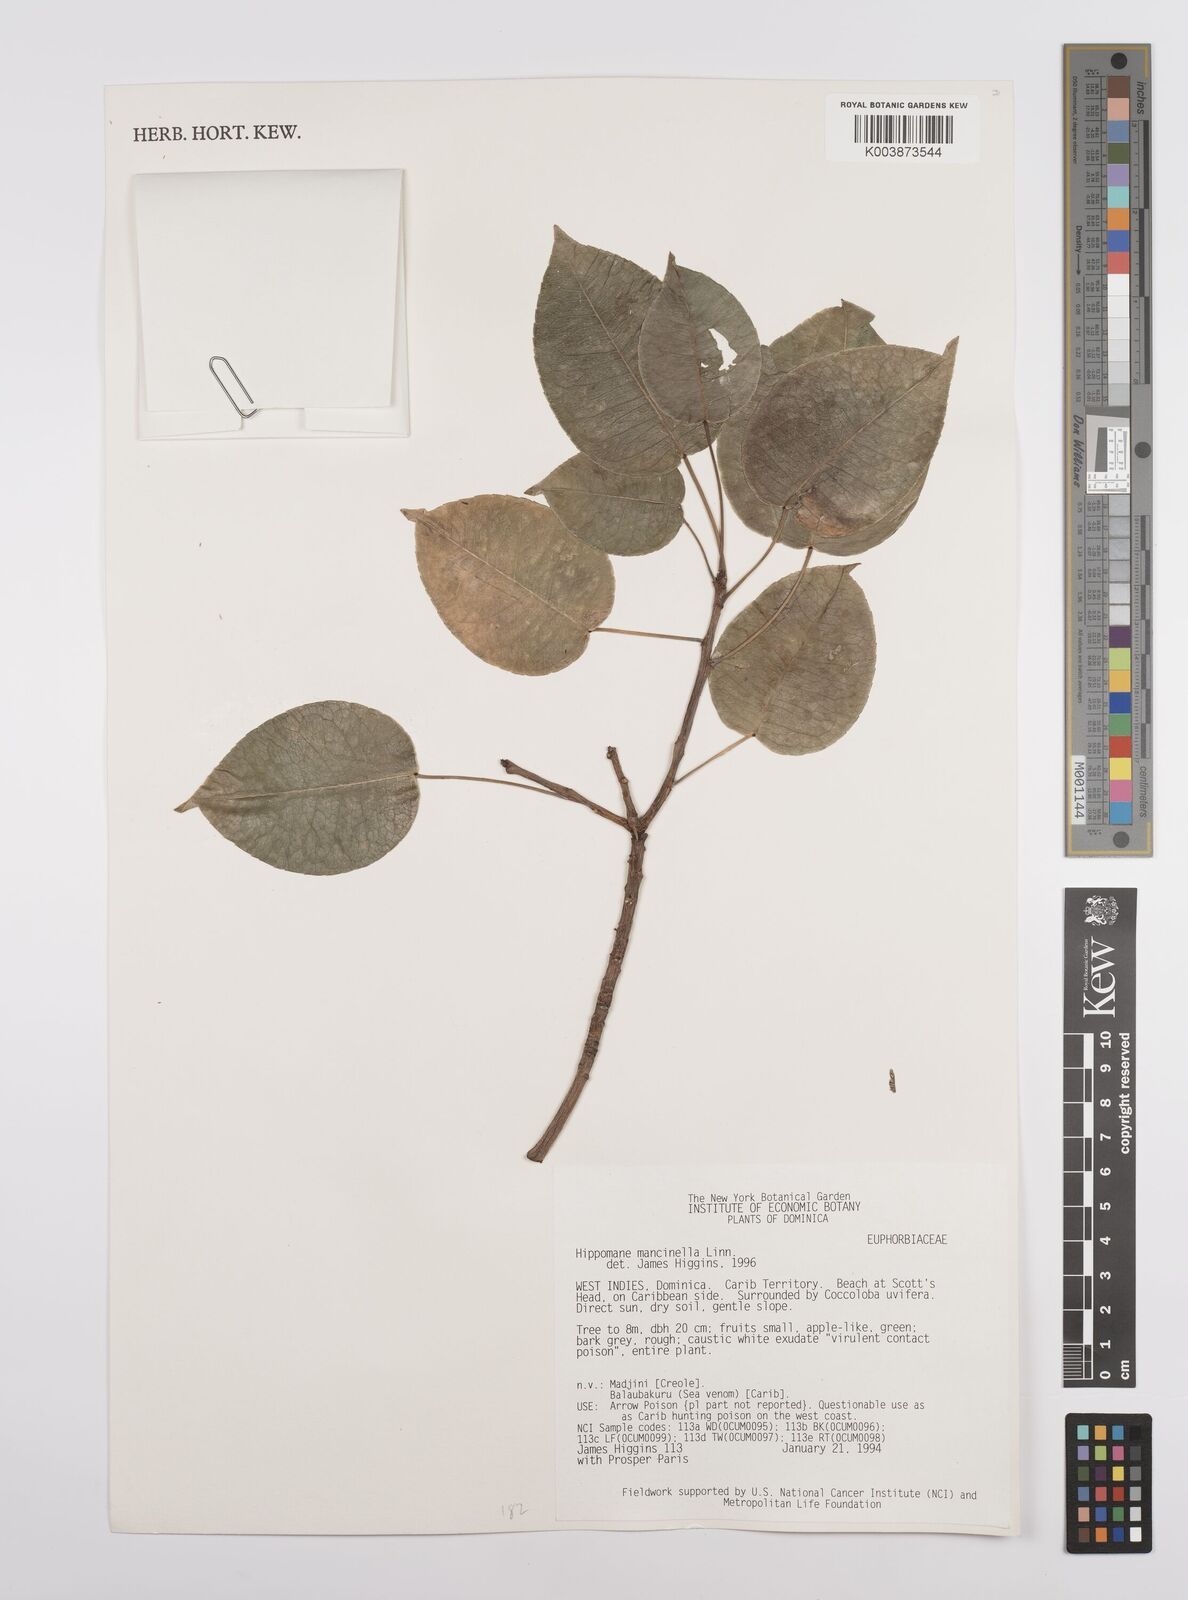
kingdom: Plantae
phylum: Tracheophyta
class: Magnoliopsida
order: Malpighiales
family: Euphorbiaceae
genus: Hippomane
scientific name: Hippomane mancinella
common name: Manchineel
